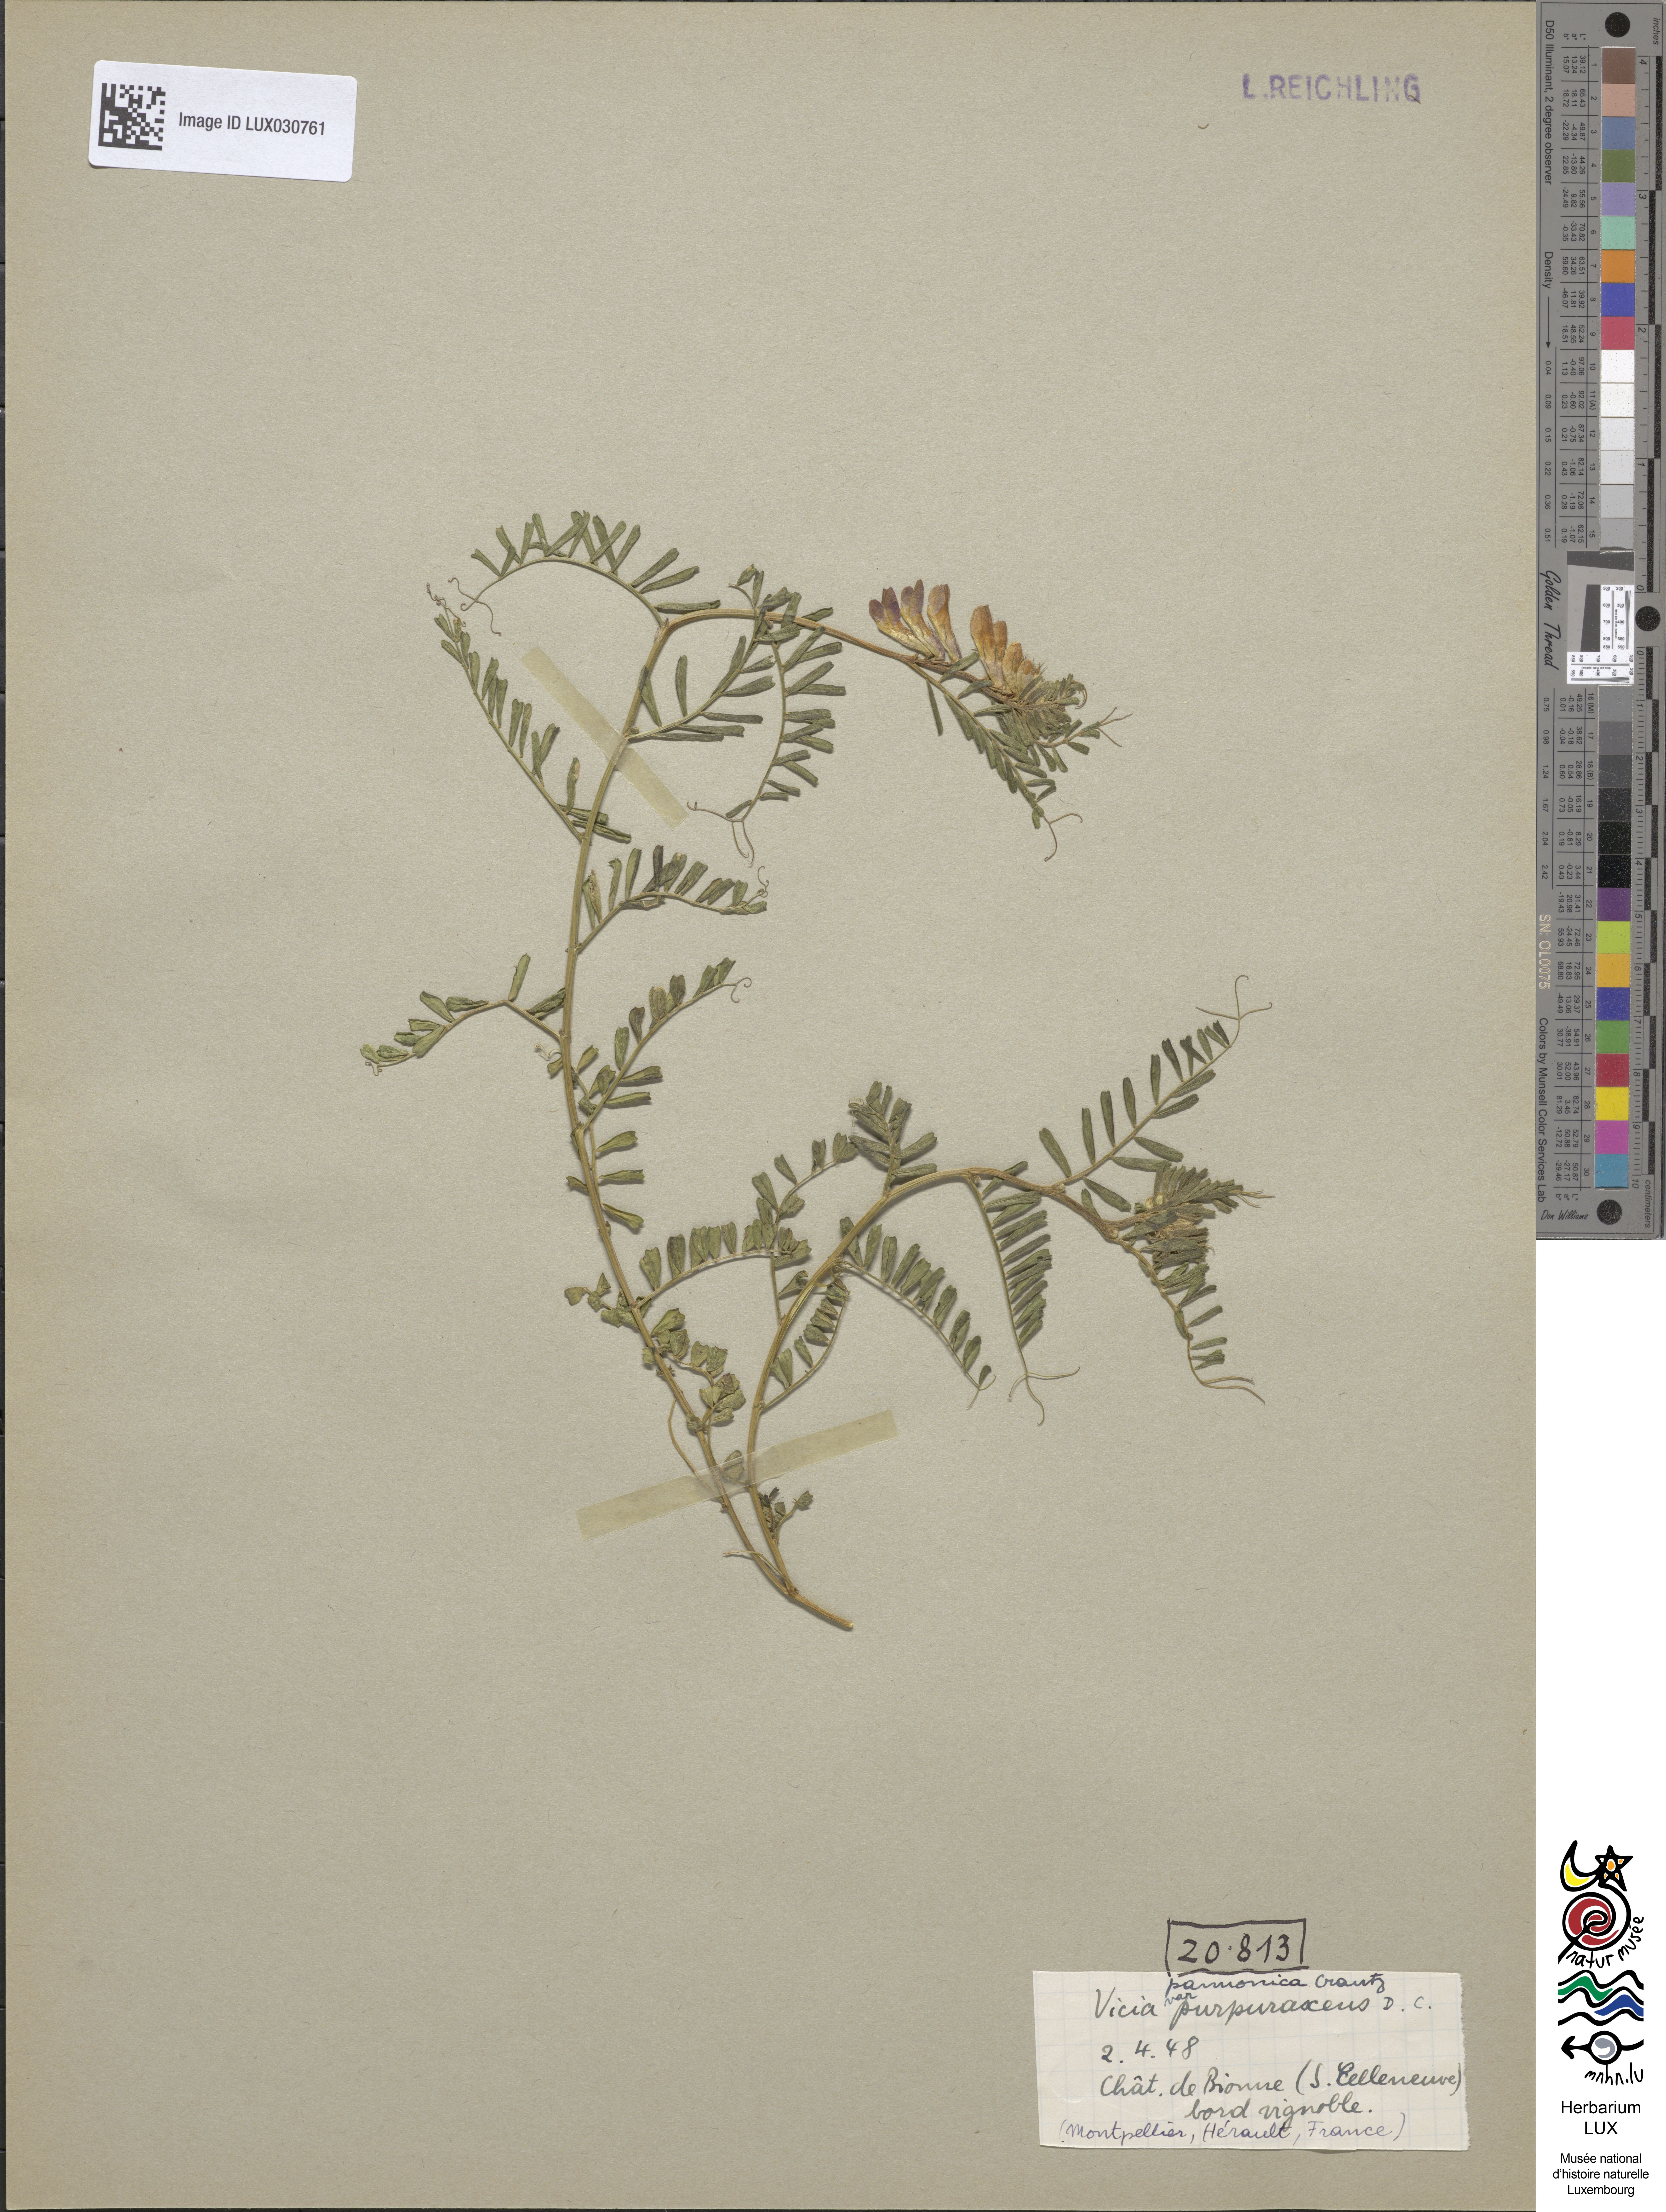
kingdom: Plantae
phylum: Tracheophyta
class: Magnoliopsida
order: Fabales
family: Fabaceae
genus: Vicia
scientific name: Vicia pannonica
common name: Hungarian vetch
